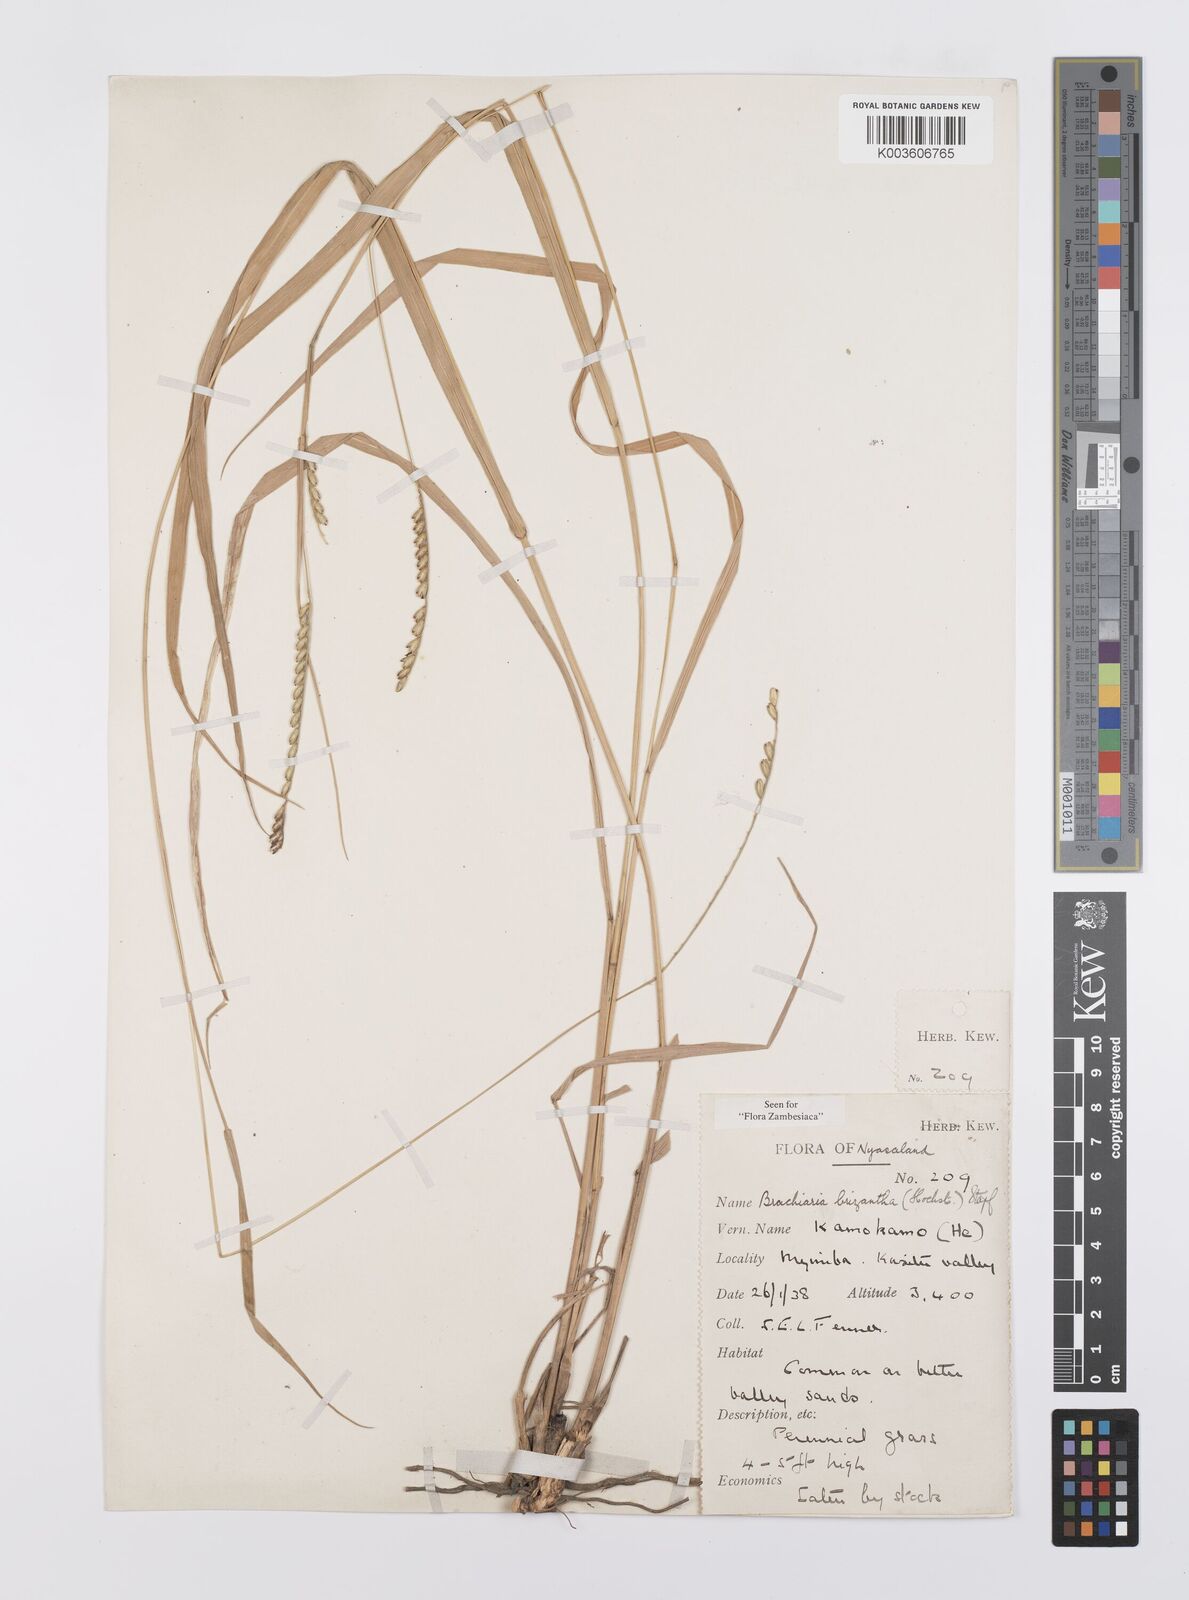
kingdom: Plantae
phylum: Tracheophyta
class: Liliopsida
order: Poales
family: Poaceae
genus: Urochloa
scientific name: Urochloa brizantha
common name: Palisade signalgrass
